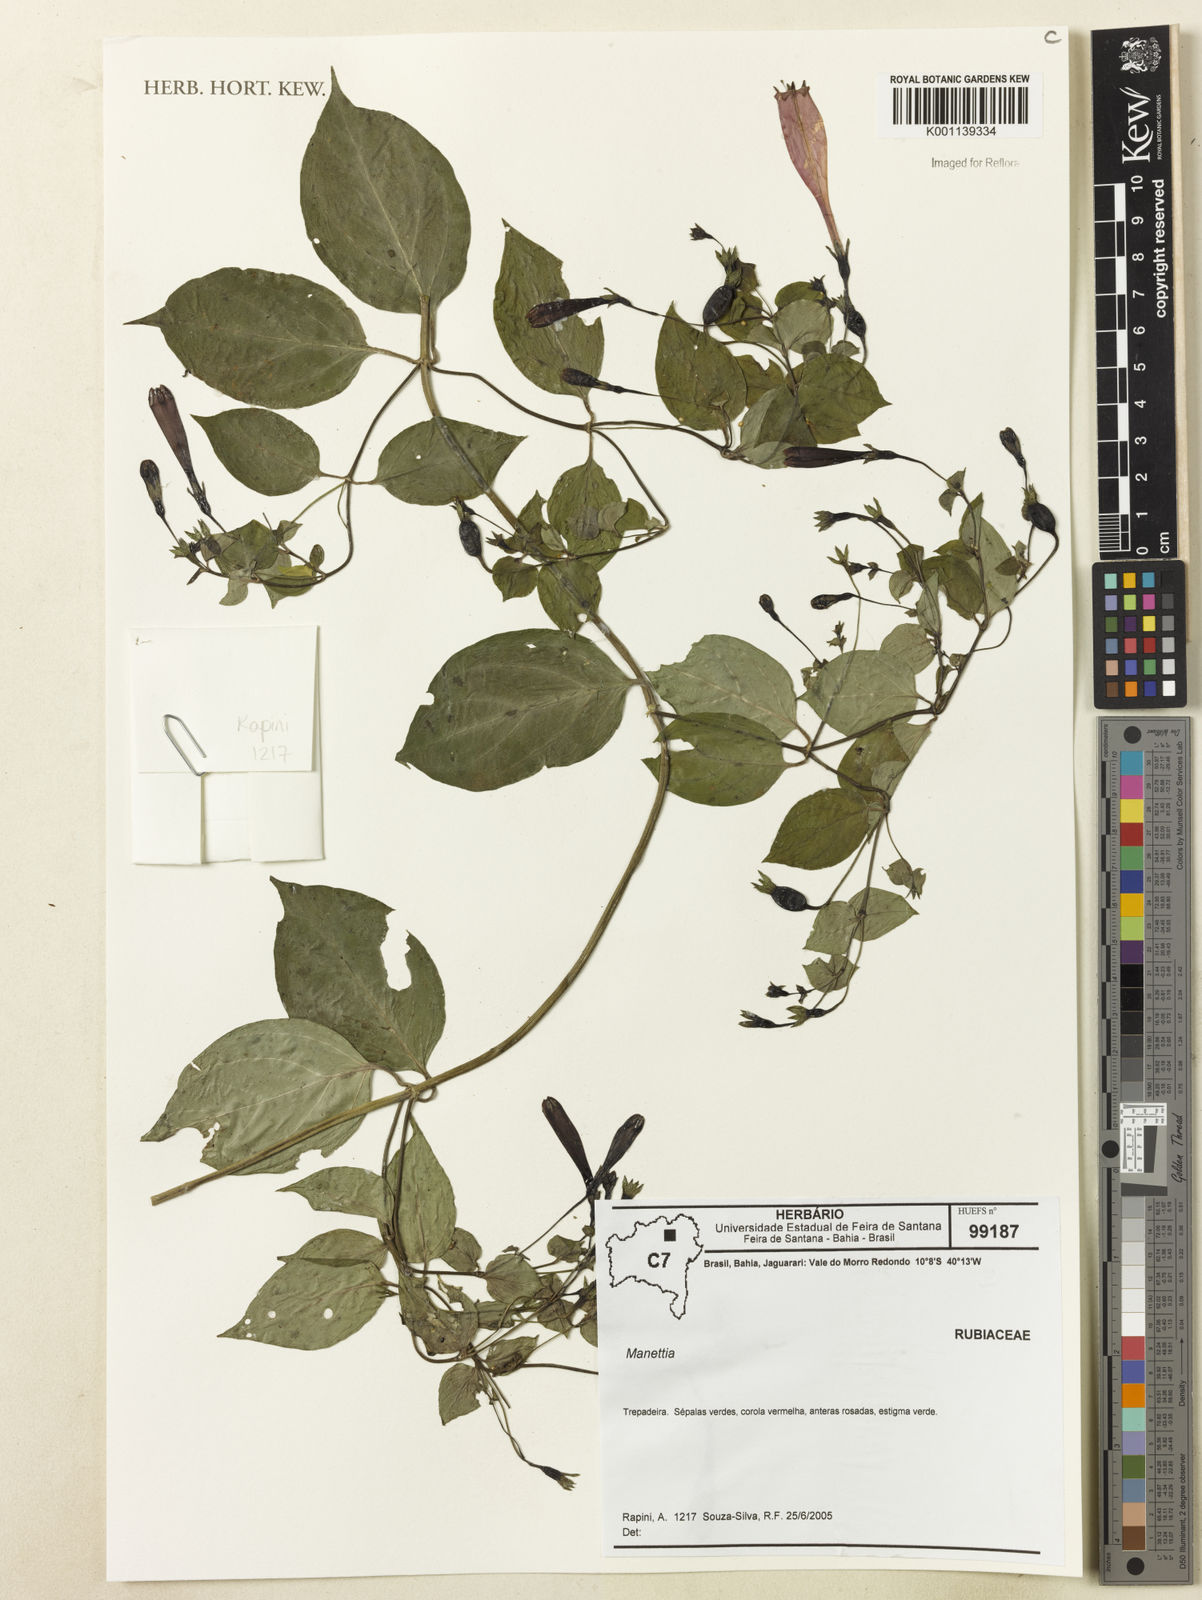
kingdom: Plantae
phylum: Tracheophyta
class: Magnoliopsida
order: Gentianales
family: Rubiaceae
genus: Manettia
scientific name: Manettia
